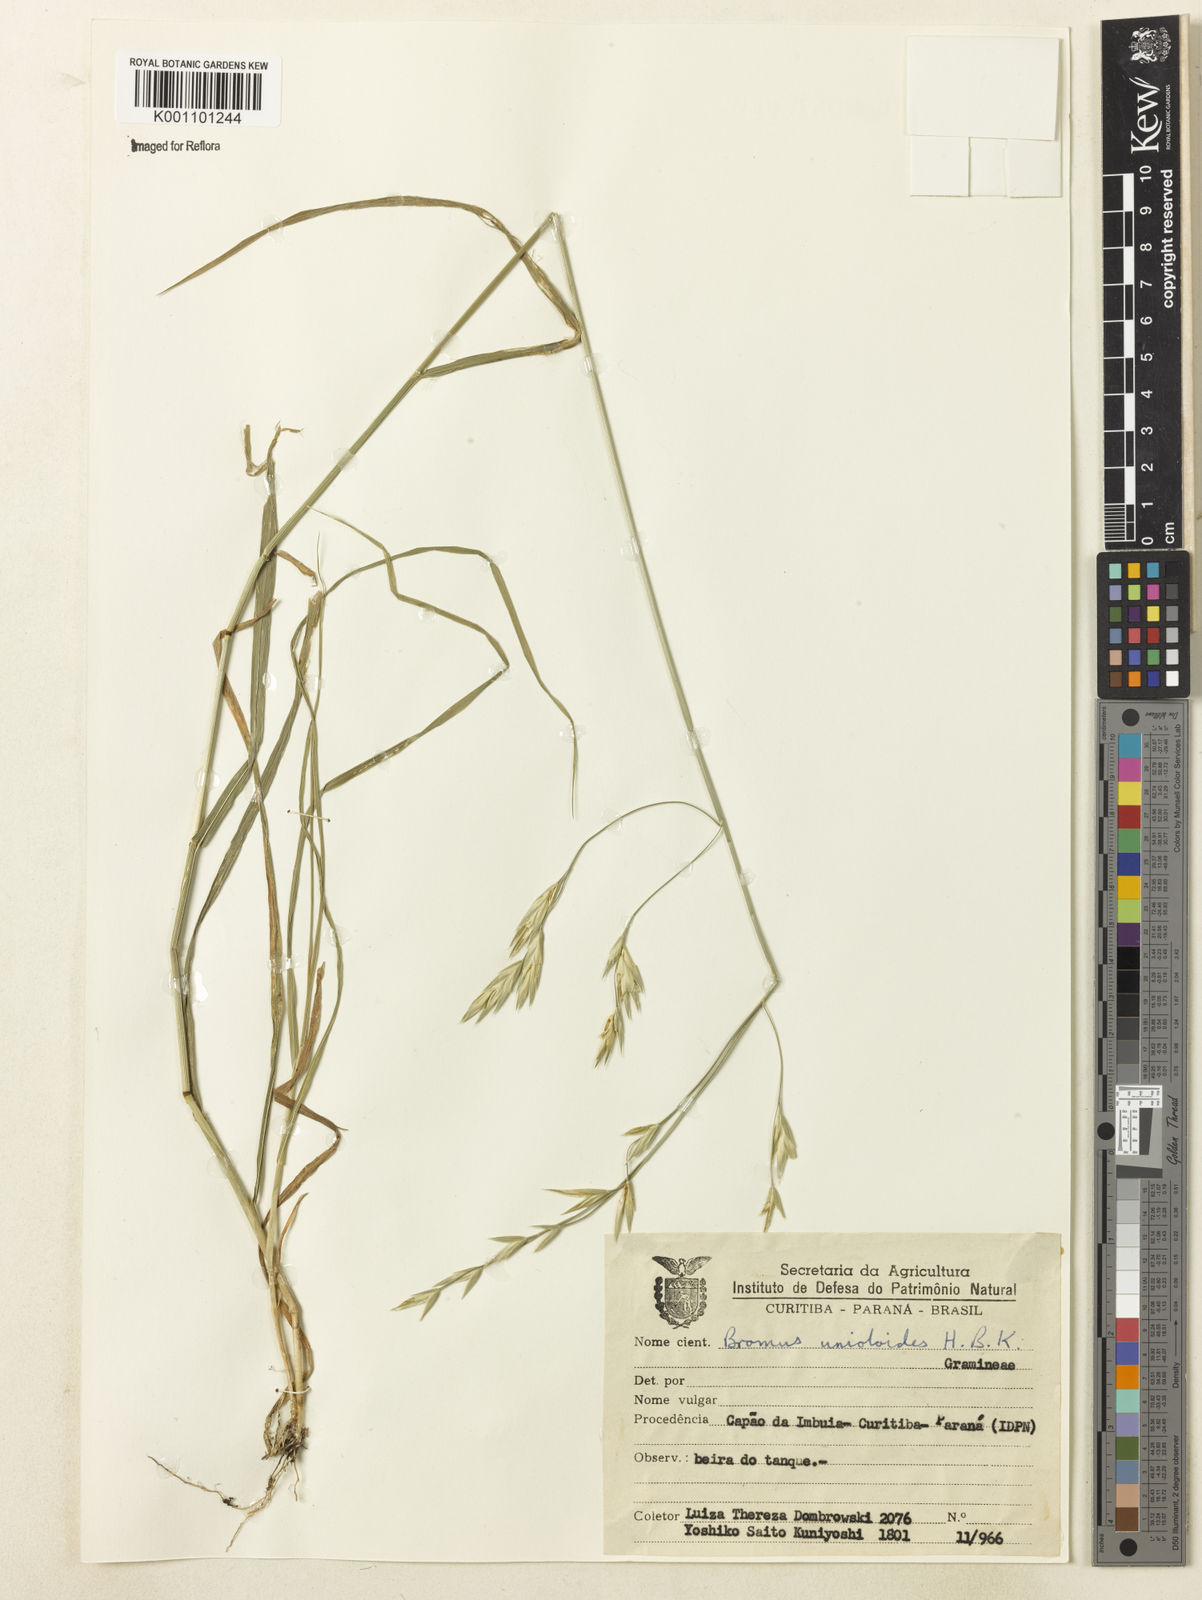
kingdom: Plantae
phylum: Tracheophyta
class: Liliopsida
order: Poales
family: Poaceae
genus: Bromus
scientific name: Bromus catharticus
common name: Rescuegrass
